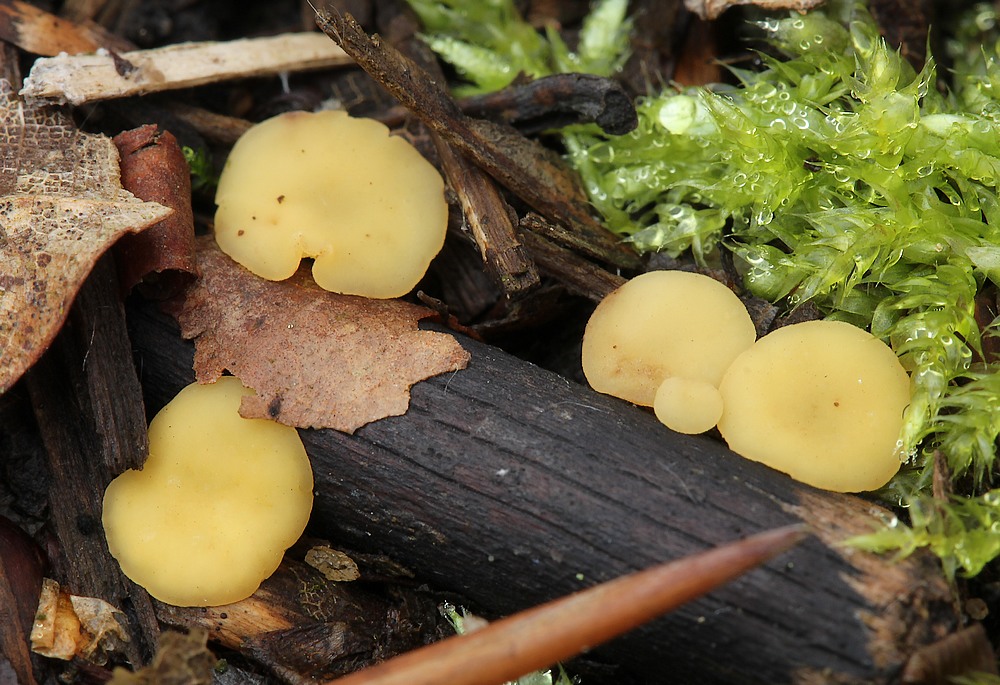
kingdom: Fungi
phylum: Ascomycota
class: Leotiomycetes
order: Helotiales
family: Helotiaceae
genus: Hymenoscyphus
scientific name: Hymenoscyphus
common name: stilkskive
